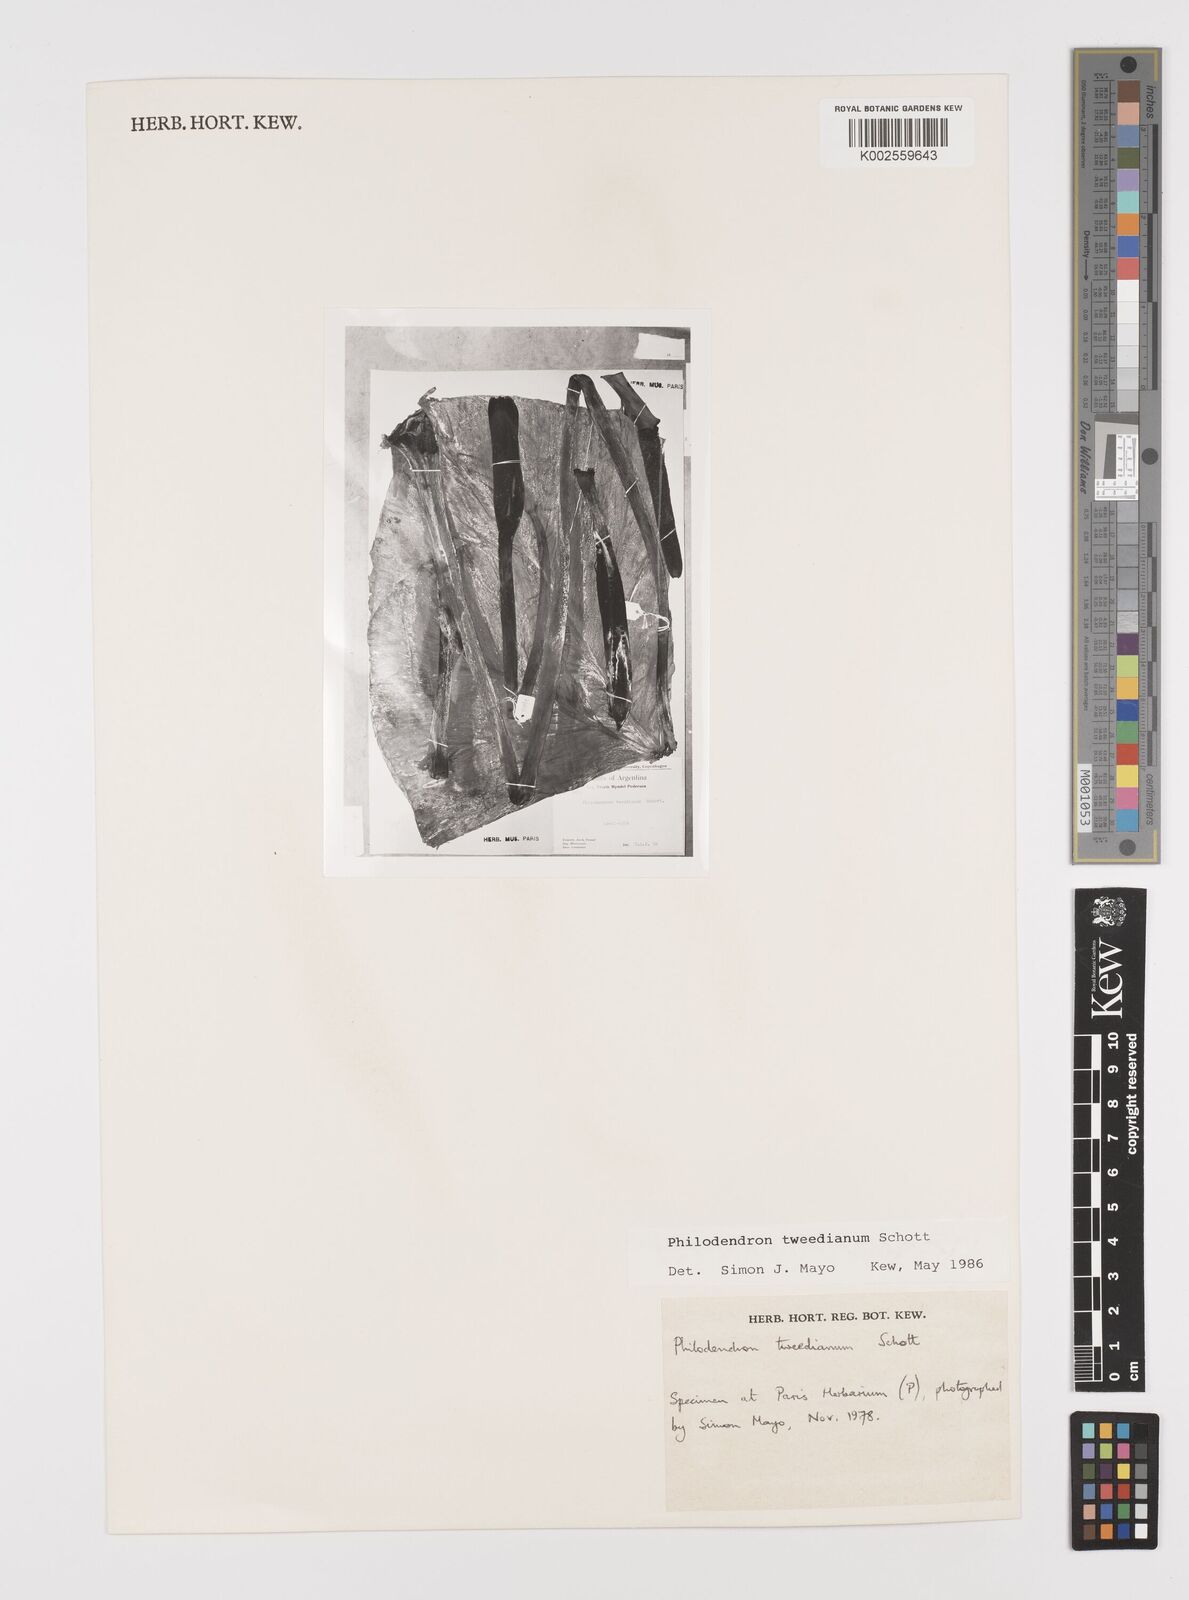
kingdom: Plantae
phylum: Tracheophyta
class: Liliopsida
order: Alismatales
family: Araceae
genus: Thaumatophyllum
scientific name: Thaumatophyllum tweedieanum
